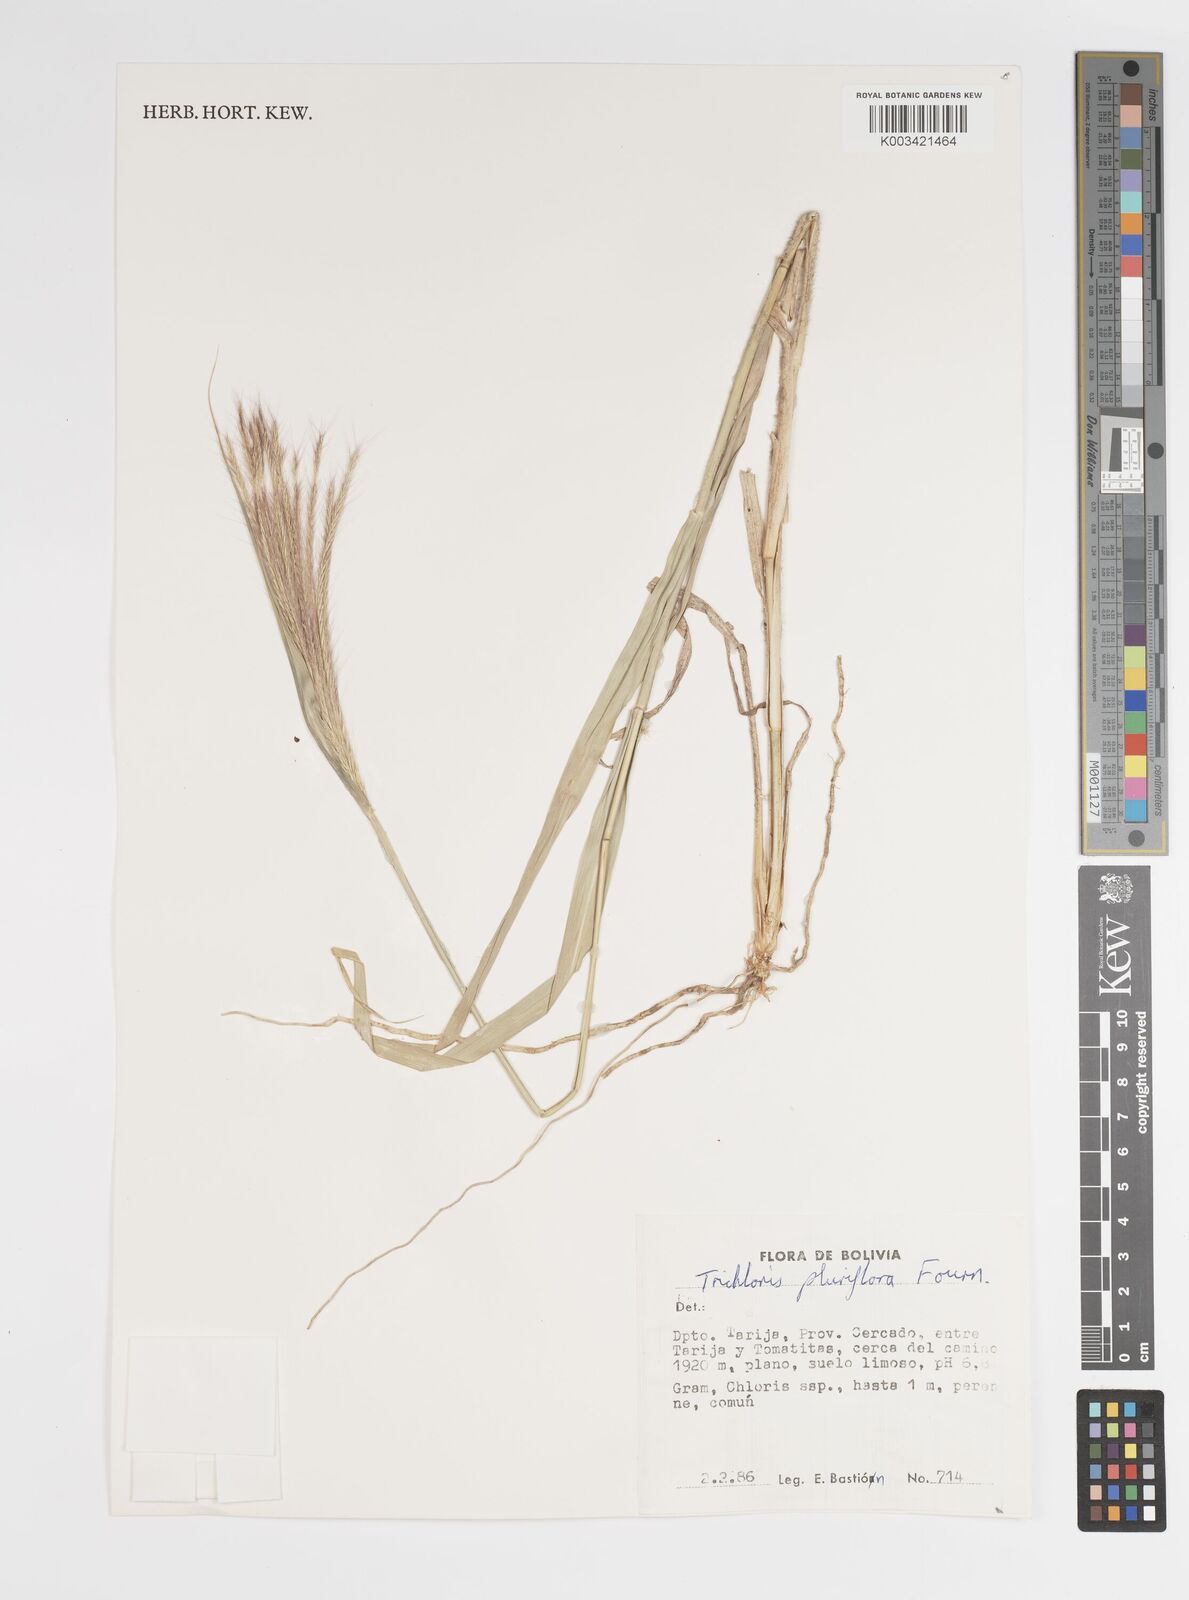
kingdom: Plantae
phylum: Tracheophyta
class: Liliopsida
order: Poales
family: Poaceae
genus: Leptochloa
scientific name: Leptochloa pluriflora
